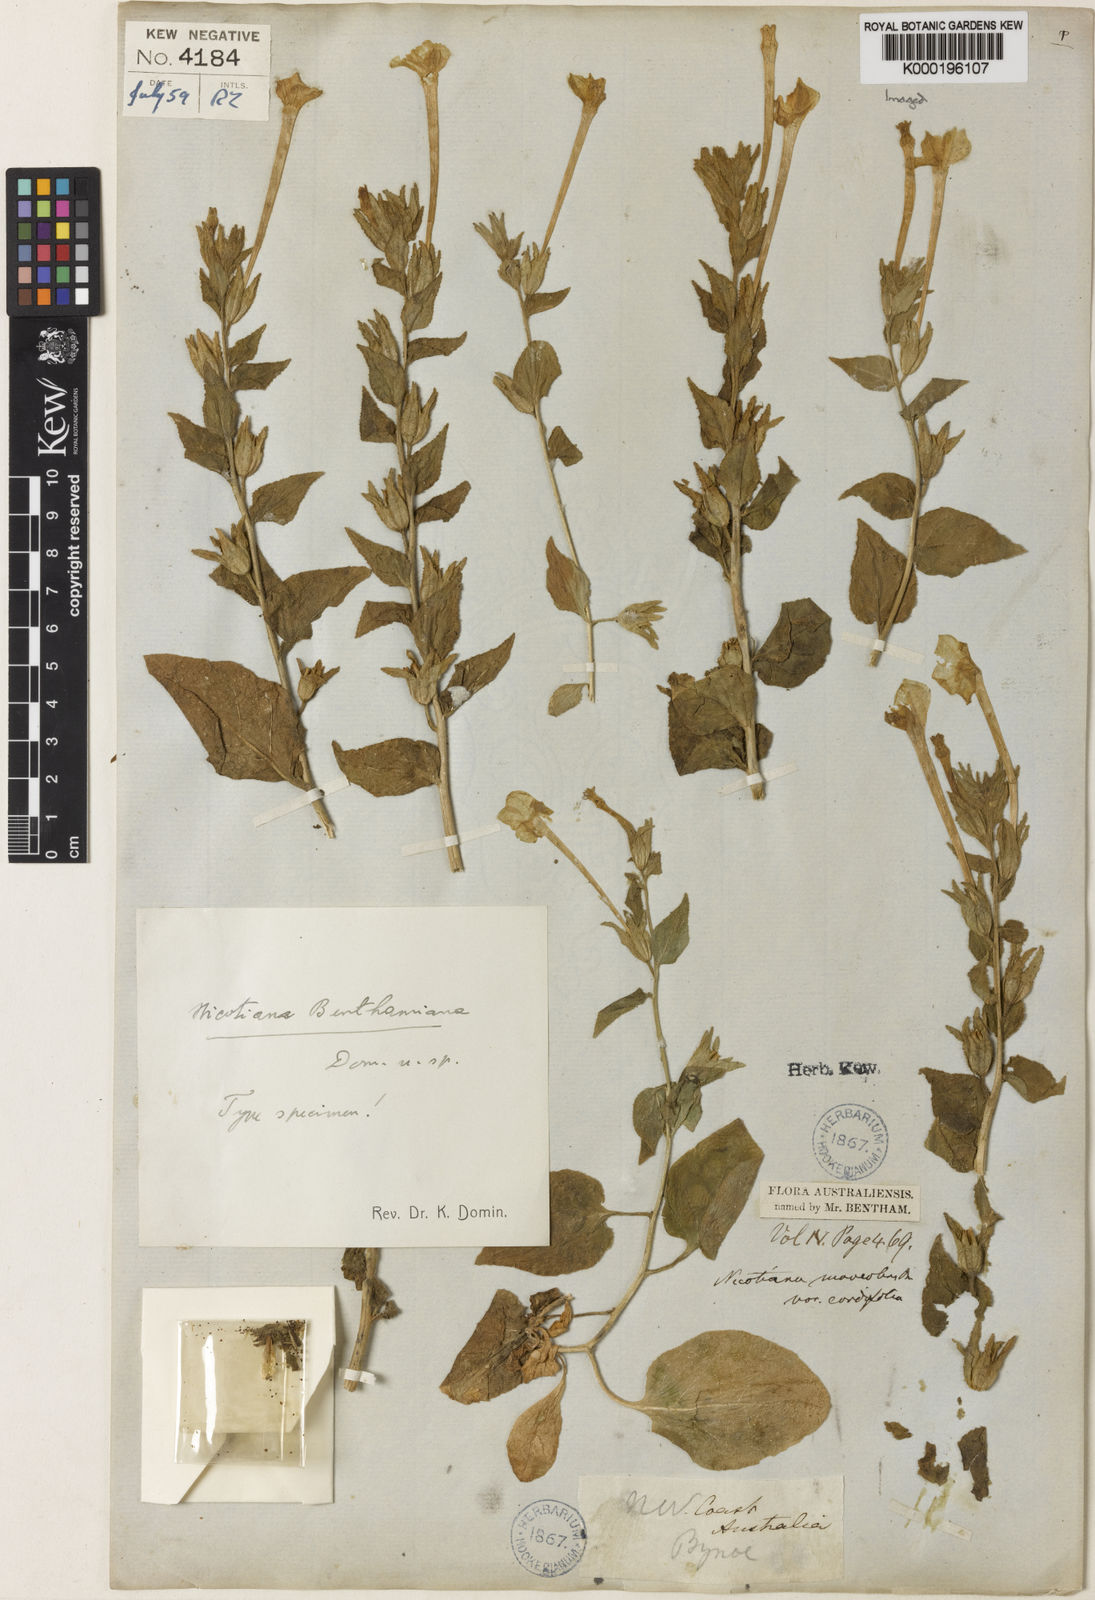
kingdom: Plantae
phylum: Tracheophyta
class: Magnoliopsida
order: Solanales
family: Solanaceae
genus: Nicotiana
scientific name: Nicotiana benthamiana
